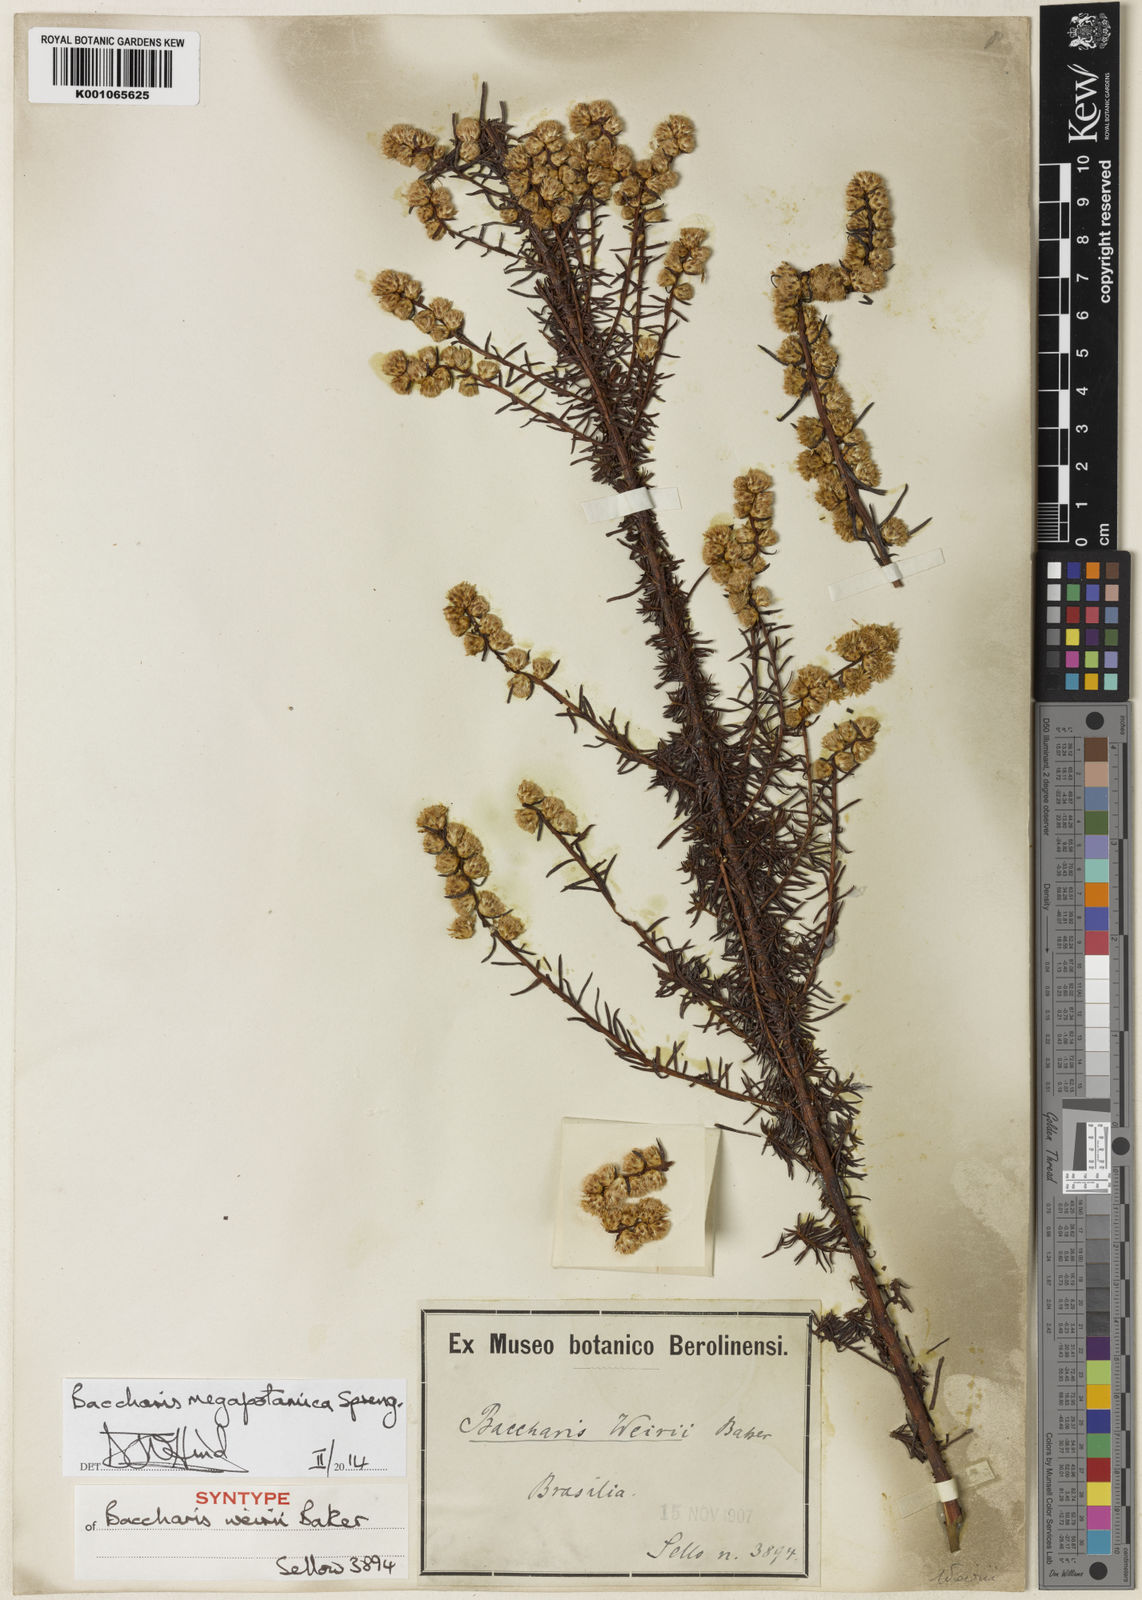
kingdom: Plantae
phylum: Tracheophyta
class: Magnoliopsida
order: Asterales
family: Asteraceae
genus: Baccharis
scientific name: Baccharis megapotamica
